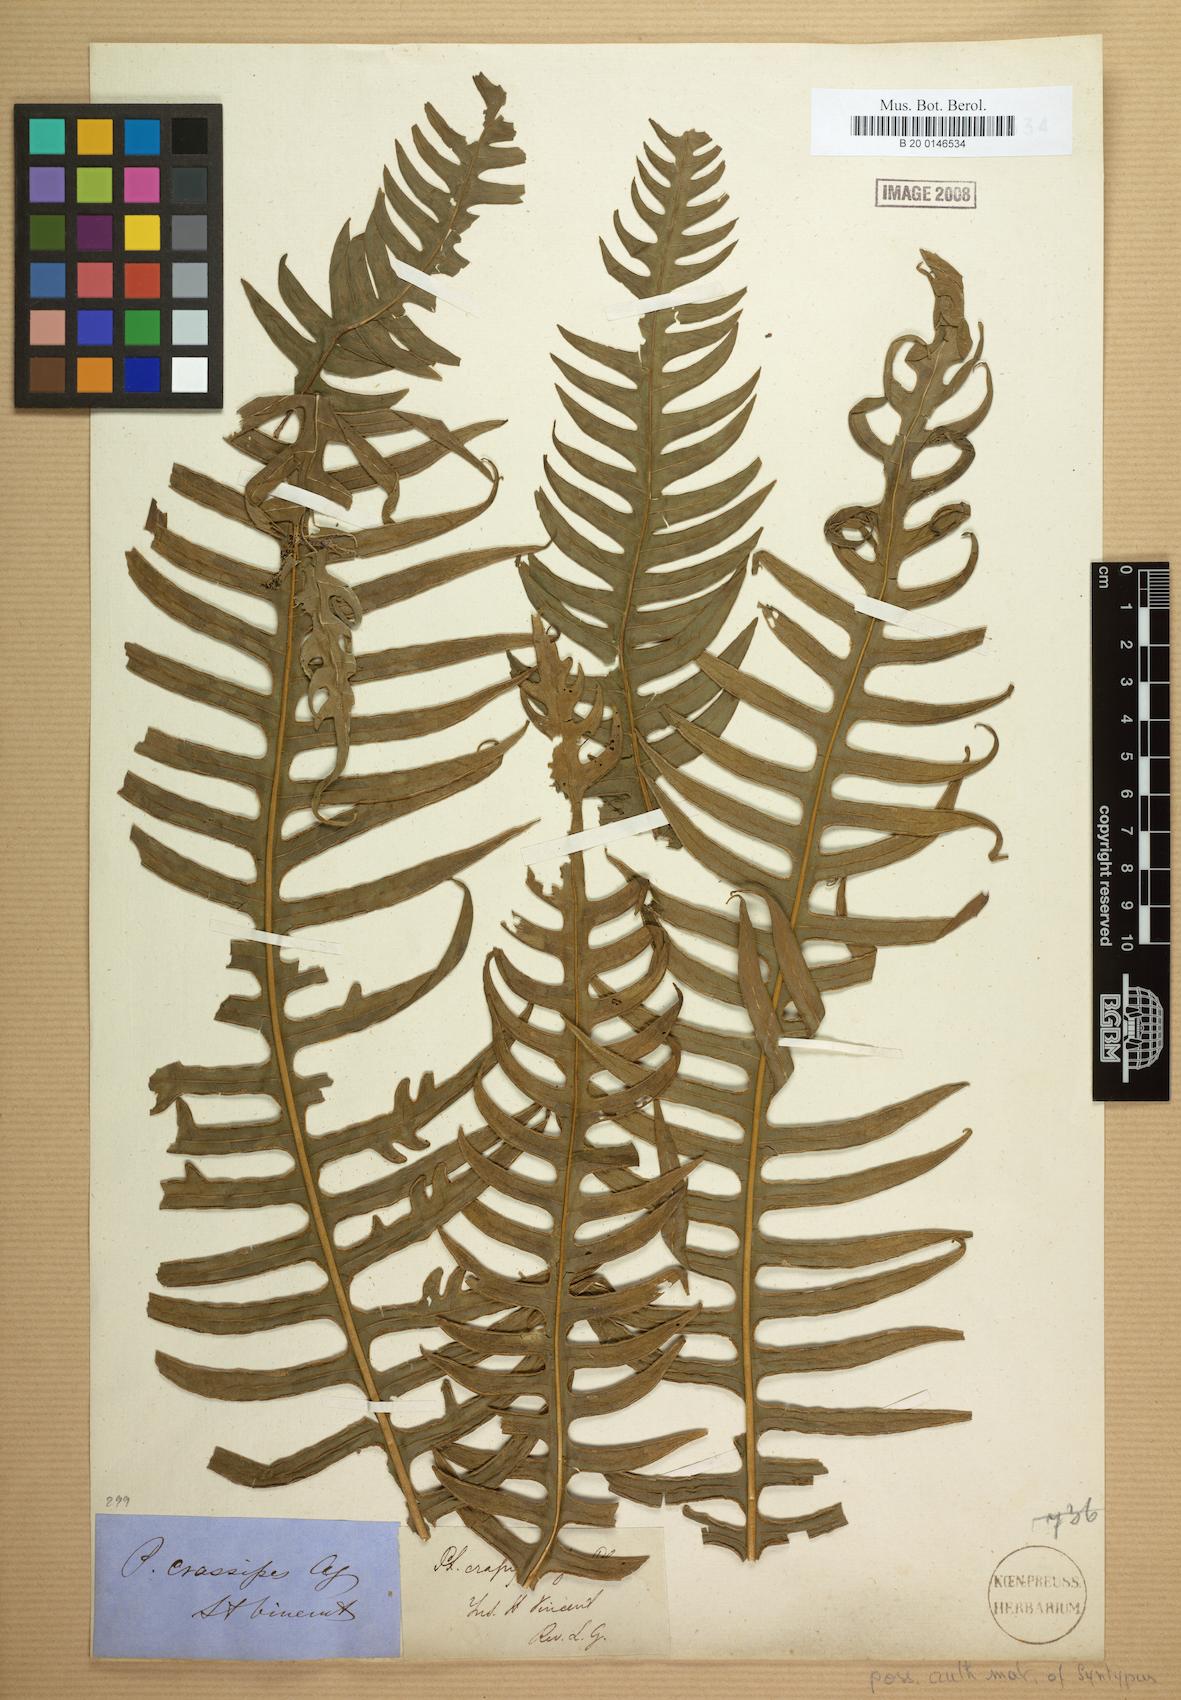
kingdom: Plantae
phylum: Tracheophyta
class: Polypodiopsida
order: Polypodiales
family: Pteridaceae
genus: Pteris
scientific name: Pteris gigantea
